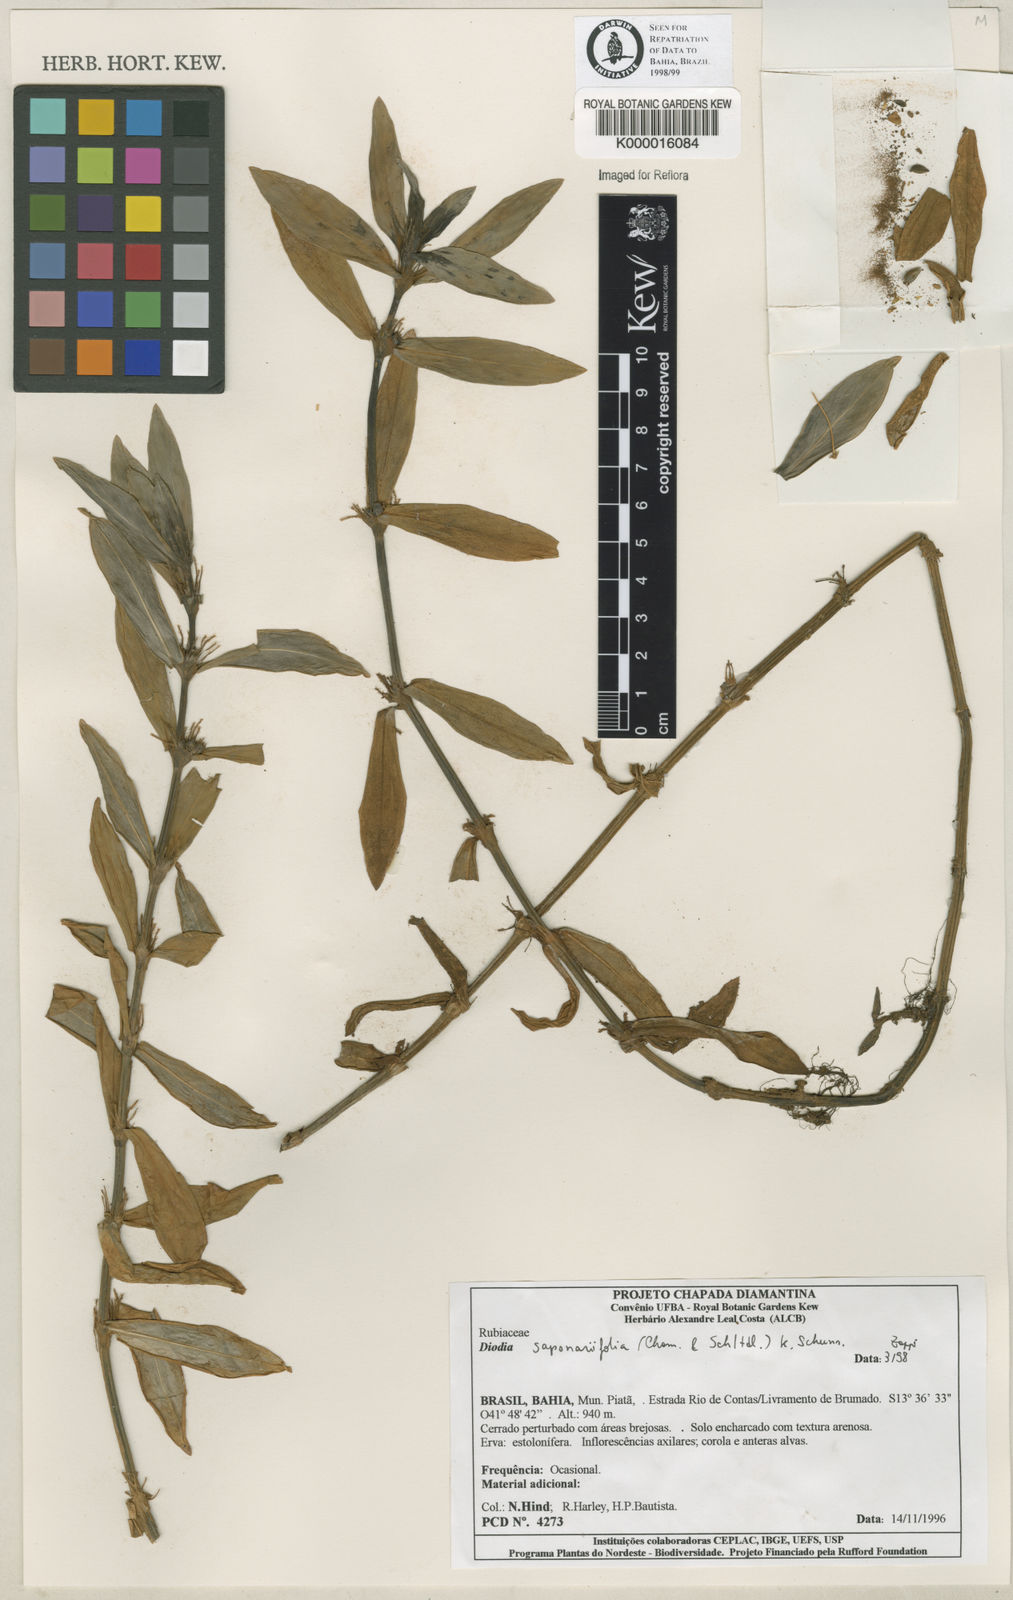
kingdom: Plantae
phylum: Tracheophyta
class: Magnoliopsida
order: Gentianales
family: Rubiaceae
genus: Diodia
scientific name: Diodia saponariifolia
